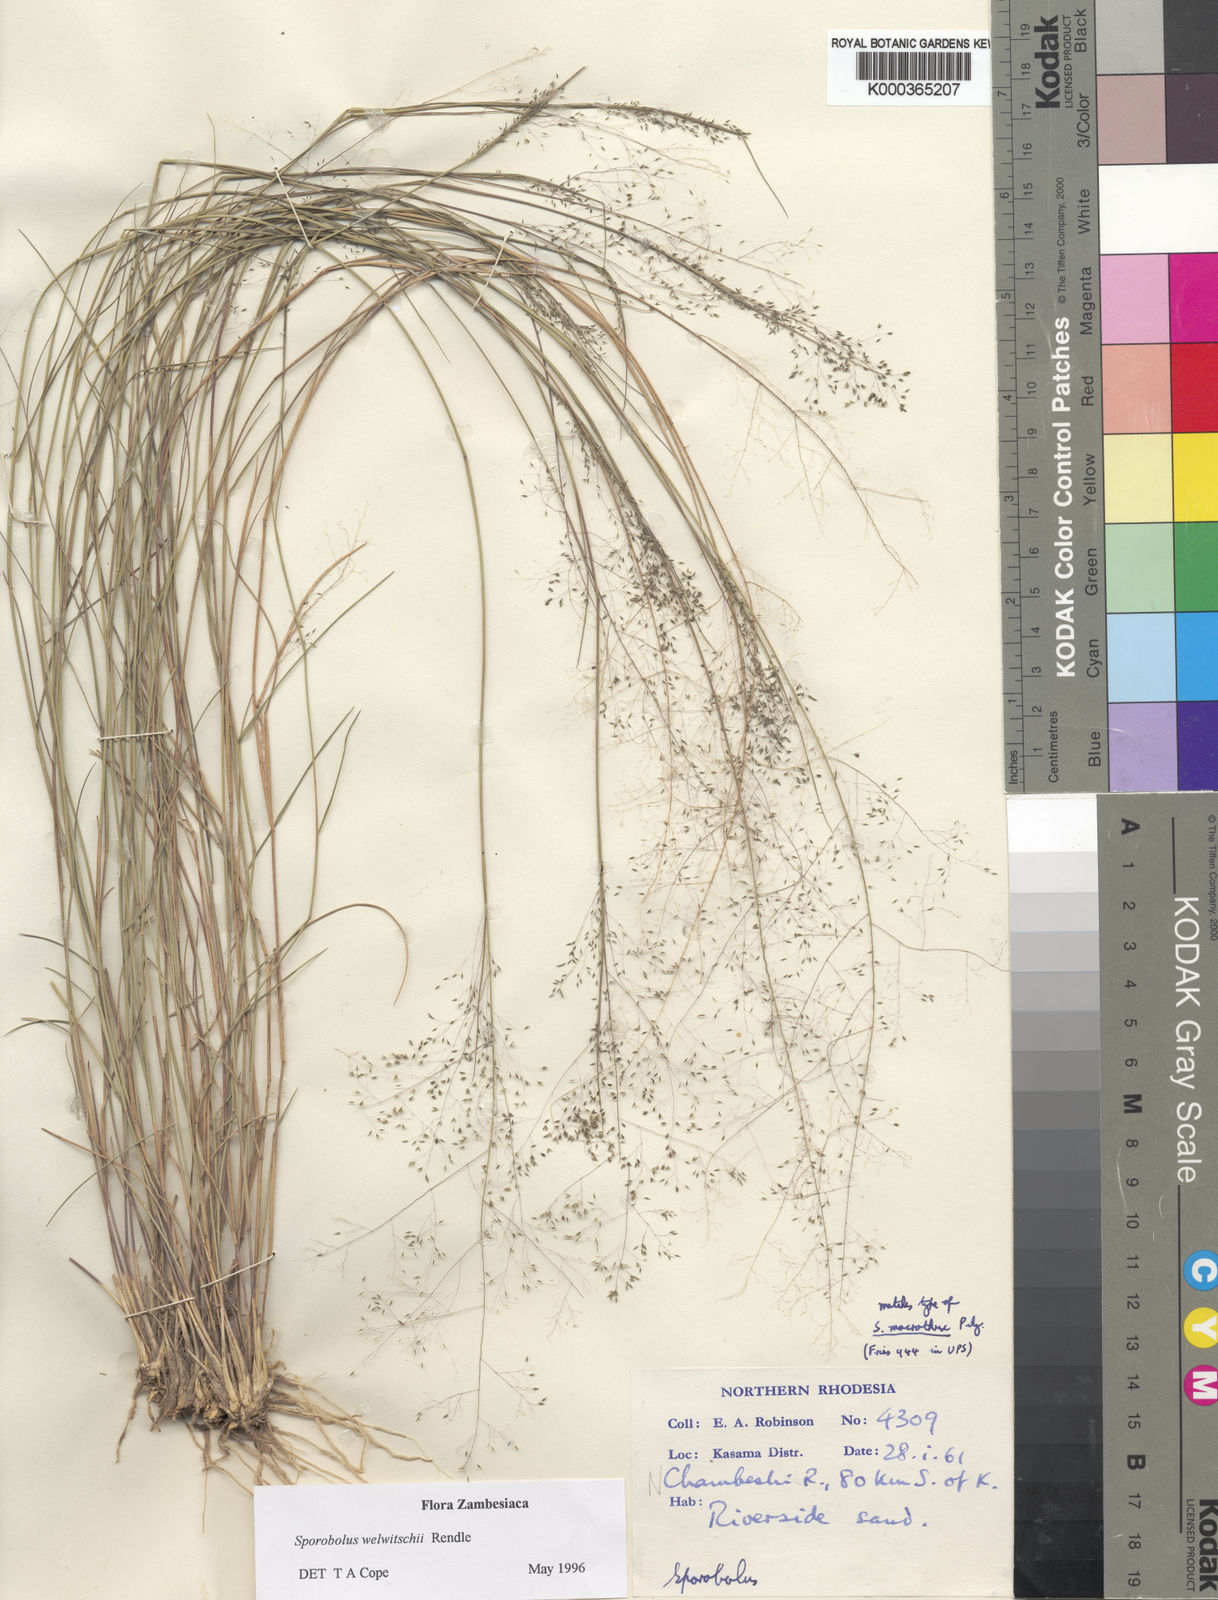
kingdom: Plantae
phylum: Tracheophyta
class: Liliopsida
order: Poales
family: Poaceae
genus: Sporobolus
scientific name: Sporobolus welwitschii
